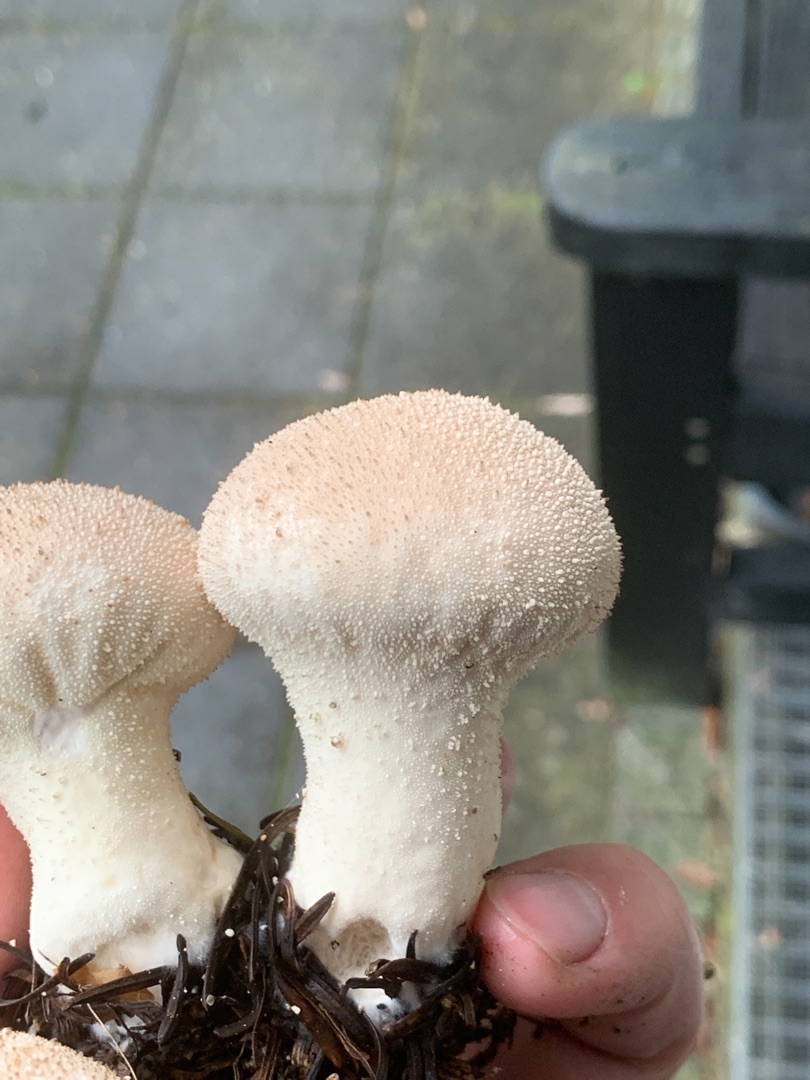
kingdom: Fungi
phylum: Basidiomycota
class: Agaricomycetes
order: Agaricales
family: Lycoperdaceae
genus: Lycoperdon
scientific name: Lycoperdon perlatum
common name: Krystal-støvbold
